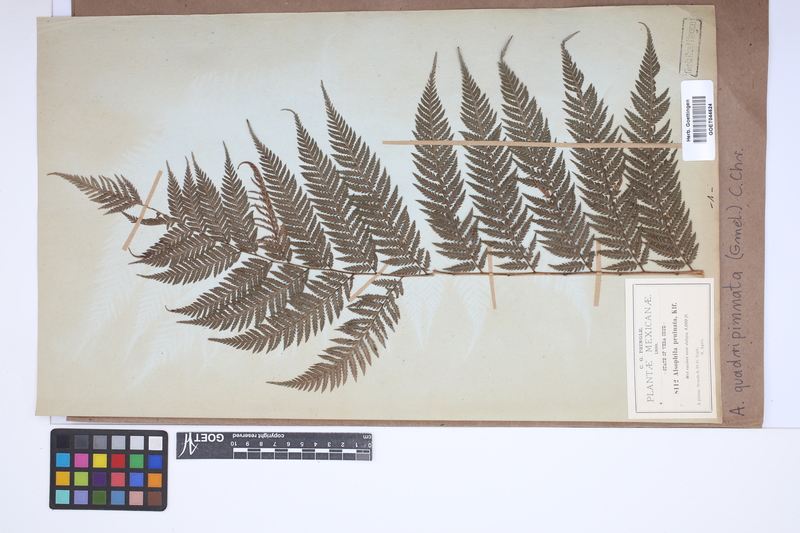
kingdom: Plantae
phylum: Tracheophyta
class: Polypodiopsida
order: Cyatheales
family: Dicksoniaceae
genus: Lophosoria
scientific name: Lophosoria quadripinnata
